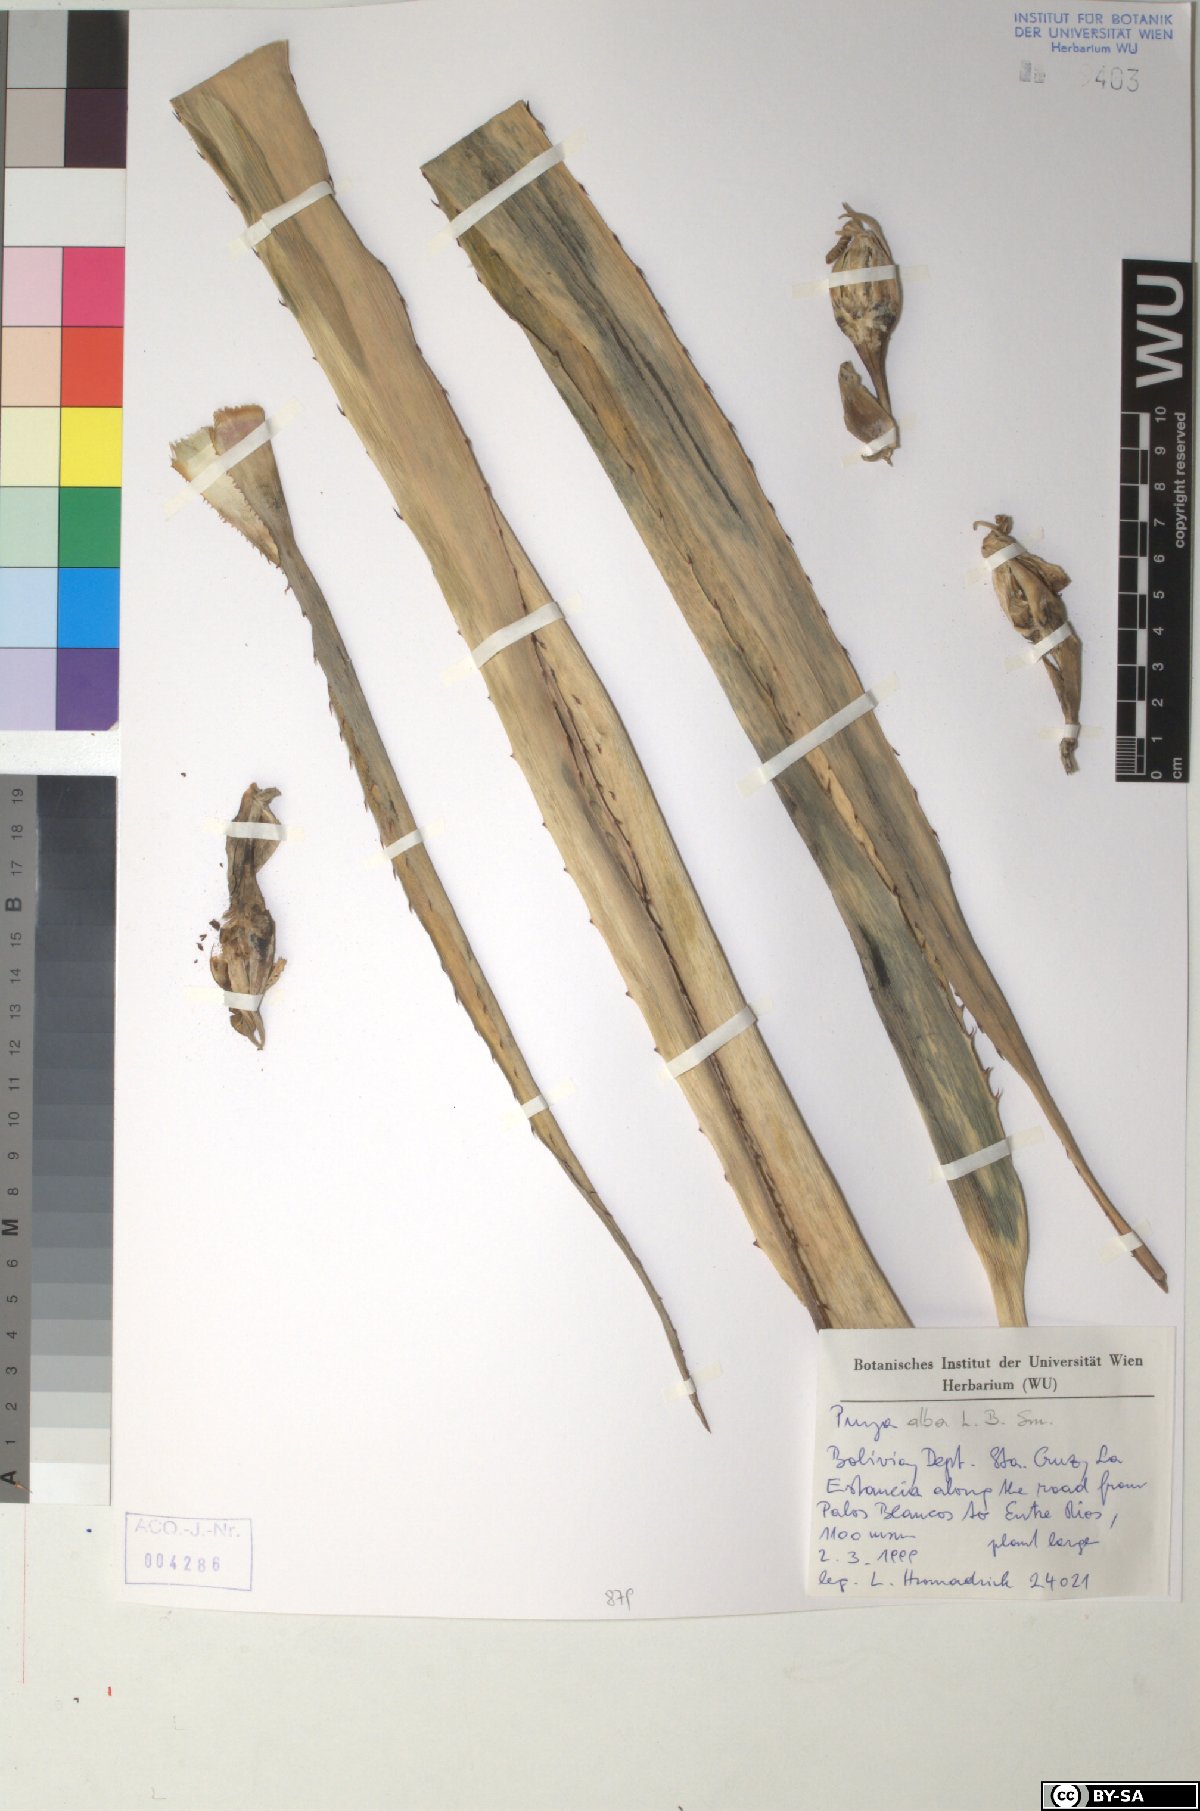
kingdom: Plantae
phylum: Tracheophyta
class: Liliopsida
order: Poales
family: Bromeliaceae
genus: Puya
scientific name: Puya alba
